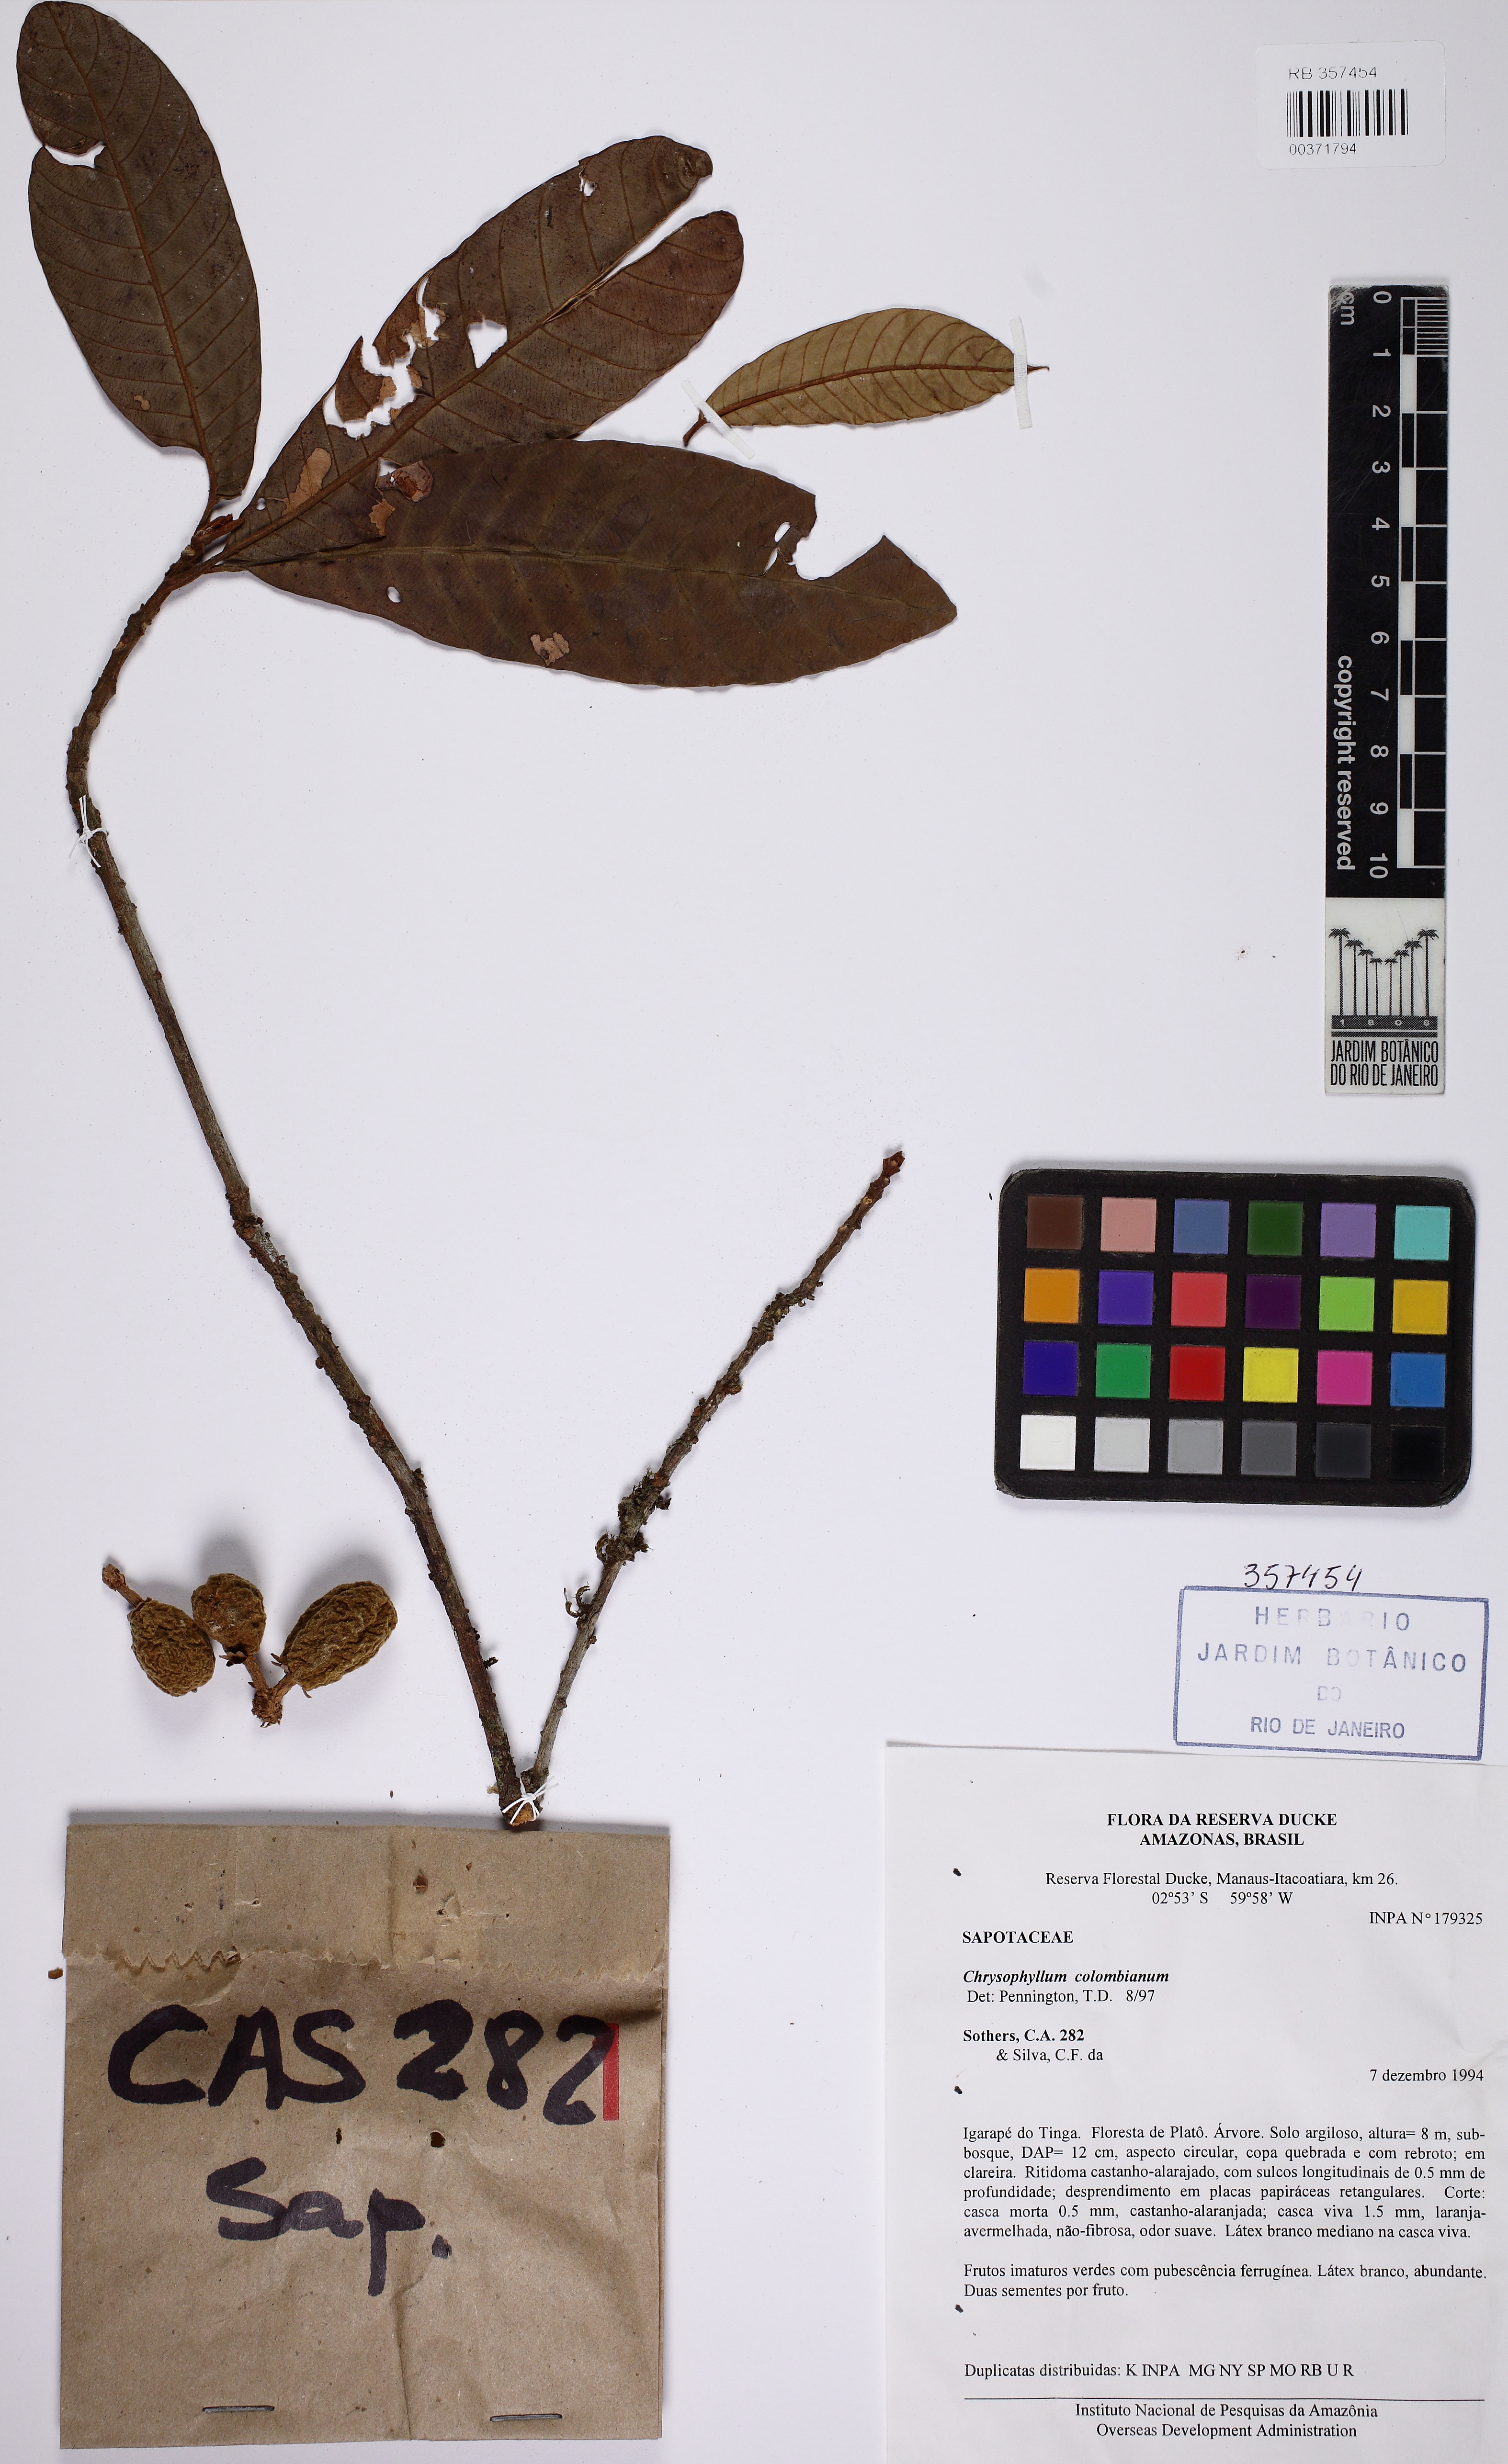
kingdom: Plantae
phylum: Tracheophyta
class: Magnoliopsida
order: Ericales
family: Sapotaceae
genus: Chrysophyllum
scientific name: Chrysophyllum colombianum
